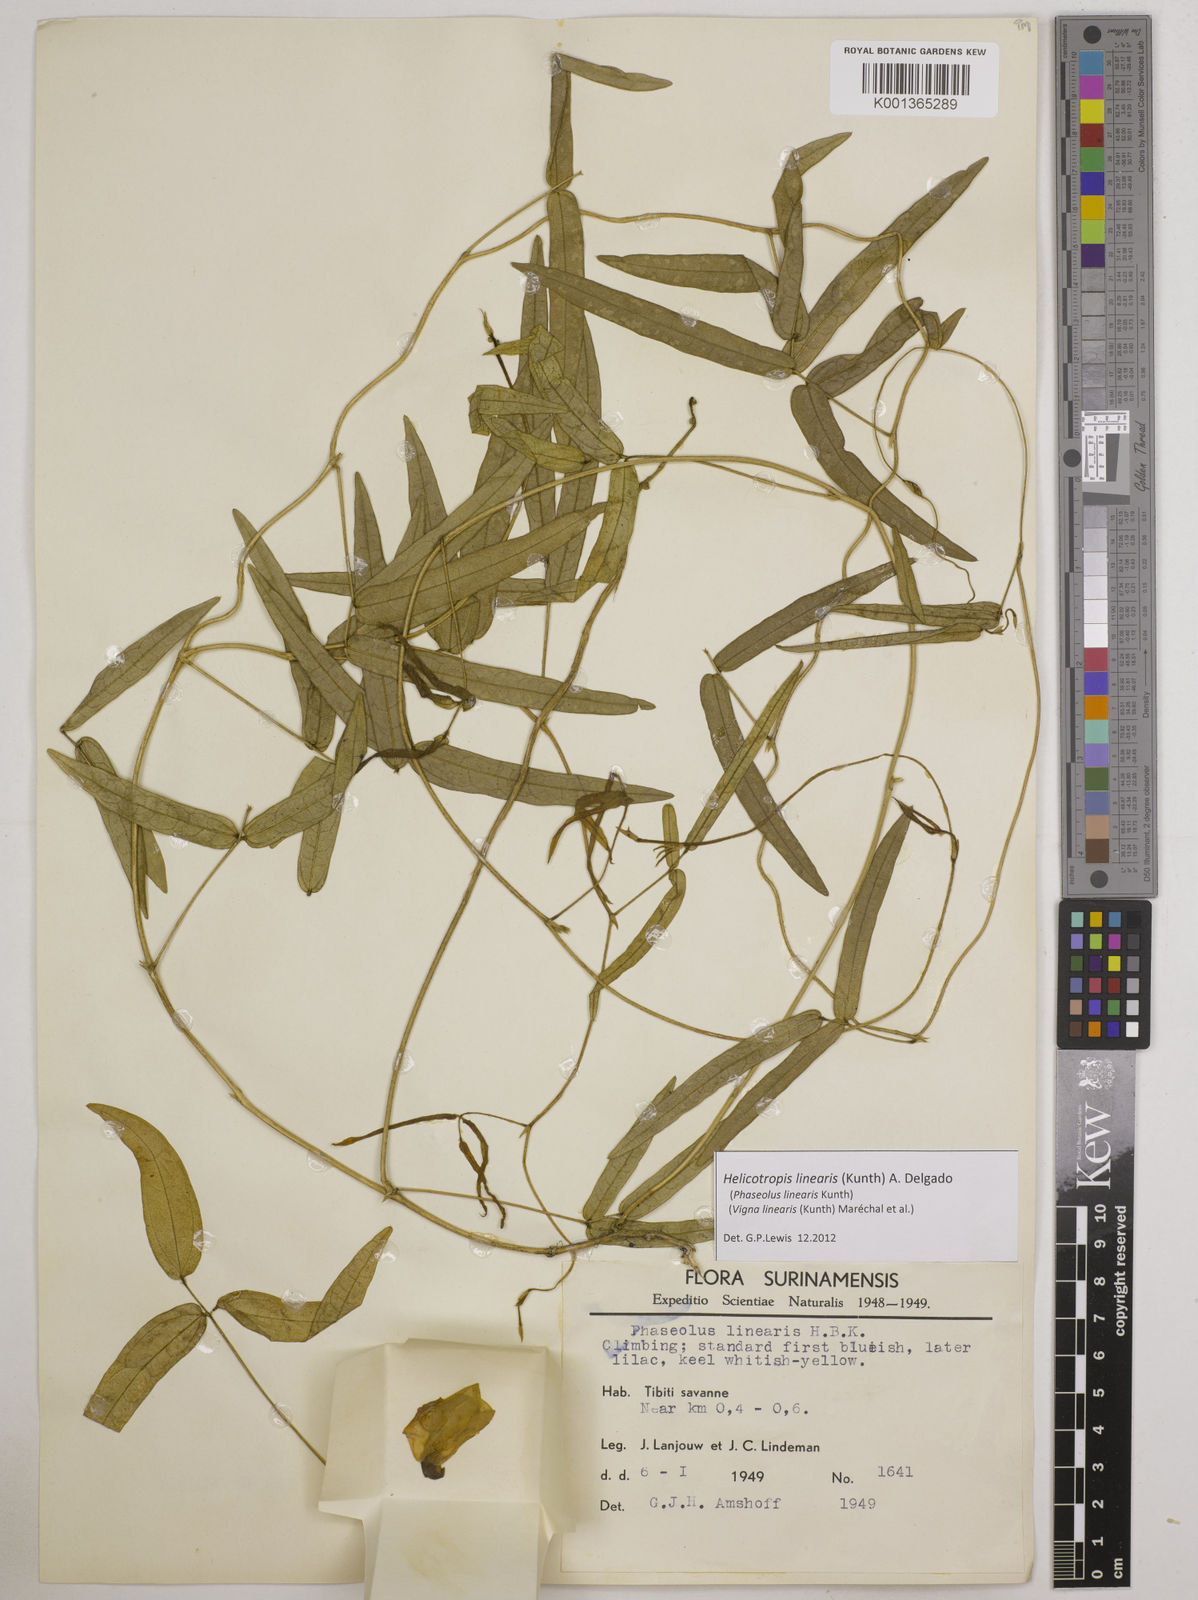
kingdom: Plantae
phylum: Tracheophyta
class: Magnoliopsida
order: Fabales
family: Fabaceae
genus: Helicotropis
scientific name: Helicotropis linearis
